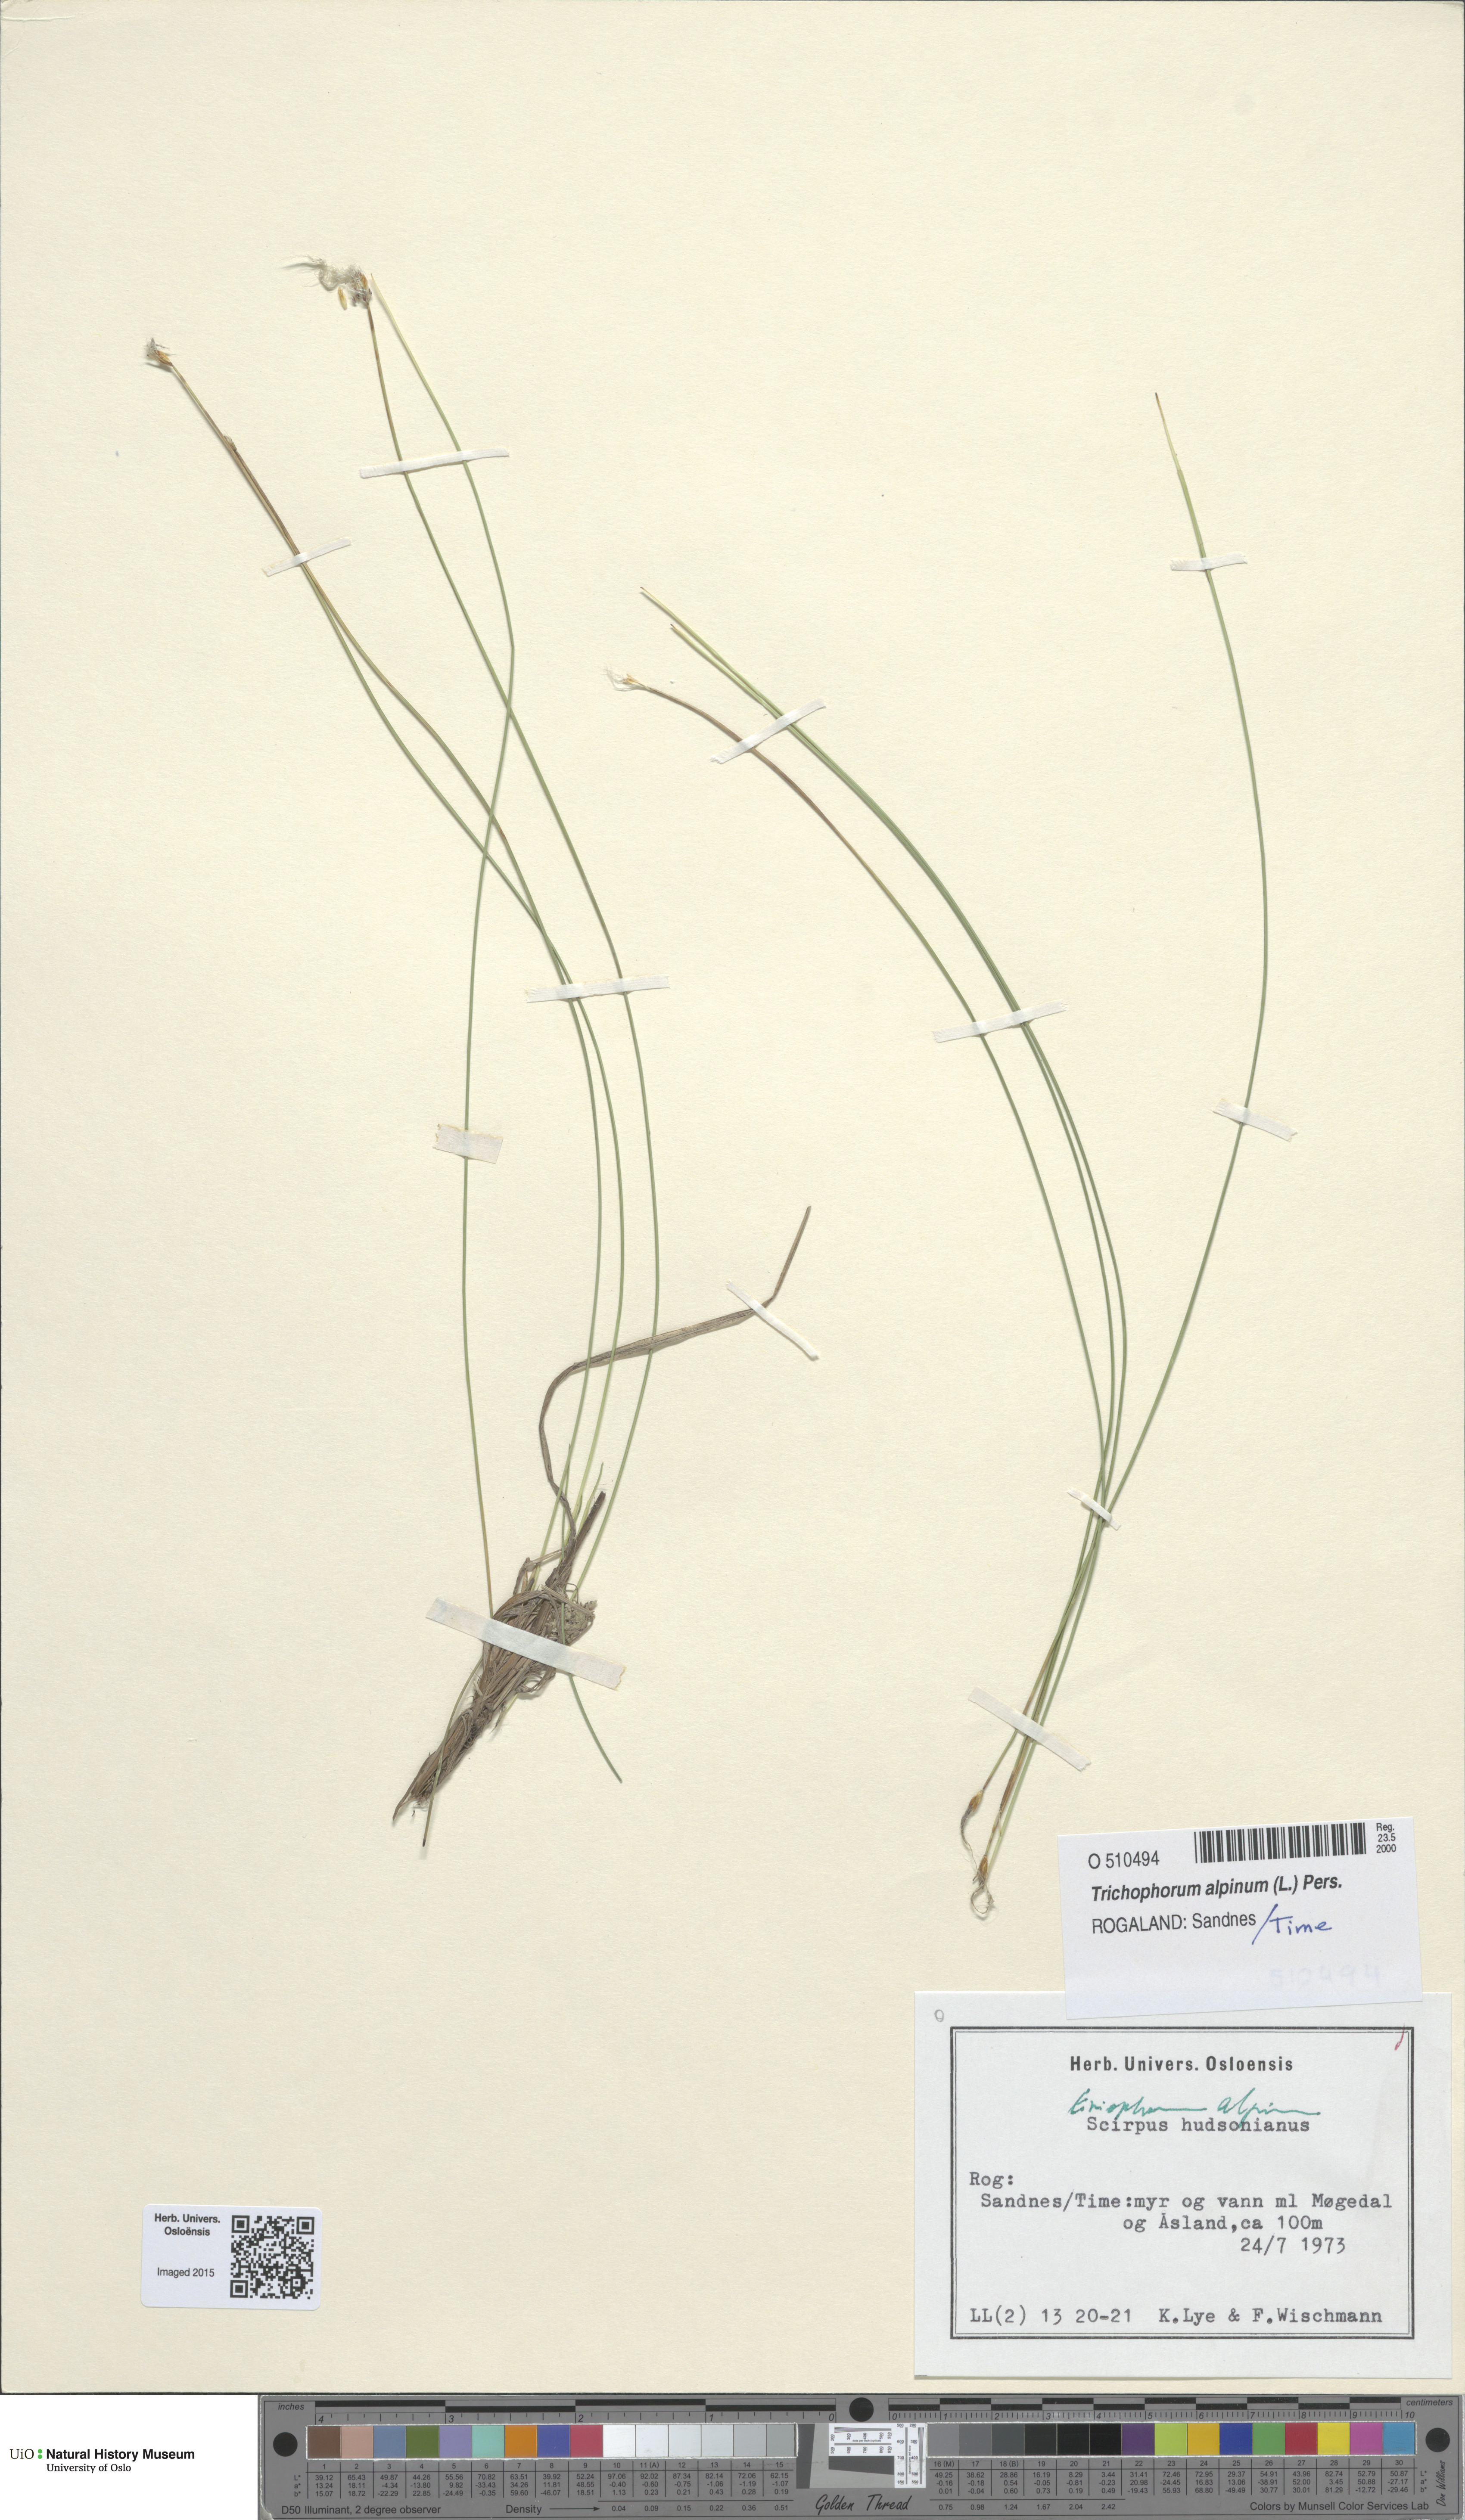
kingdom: Plantae
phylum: Tracheophyta
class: Liliopsida
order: Poales
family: Cyperaceae
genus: Trichophorum
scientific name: Trichophorum alpinum
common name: Alpine bulrush
